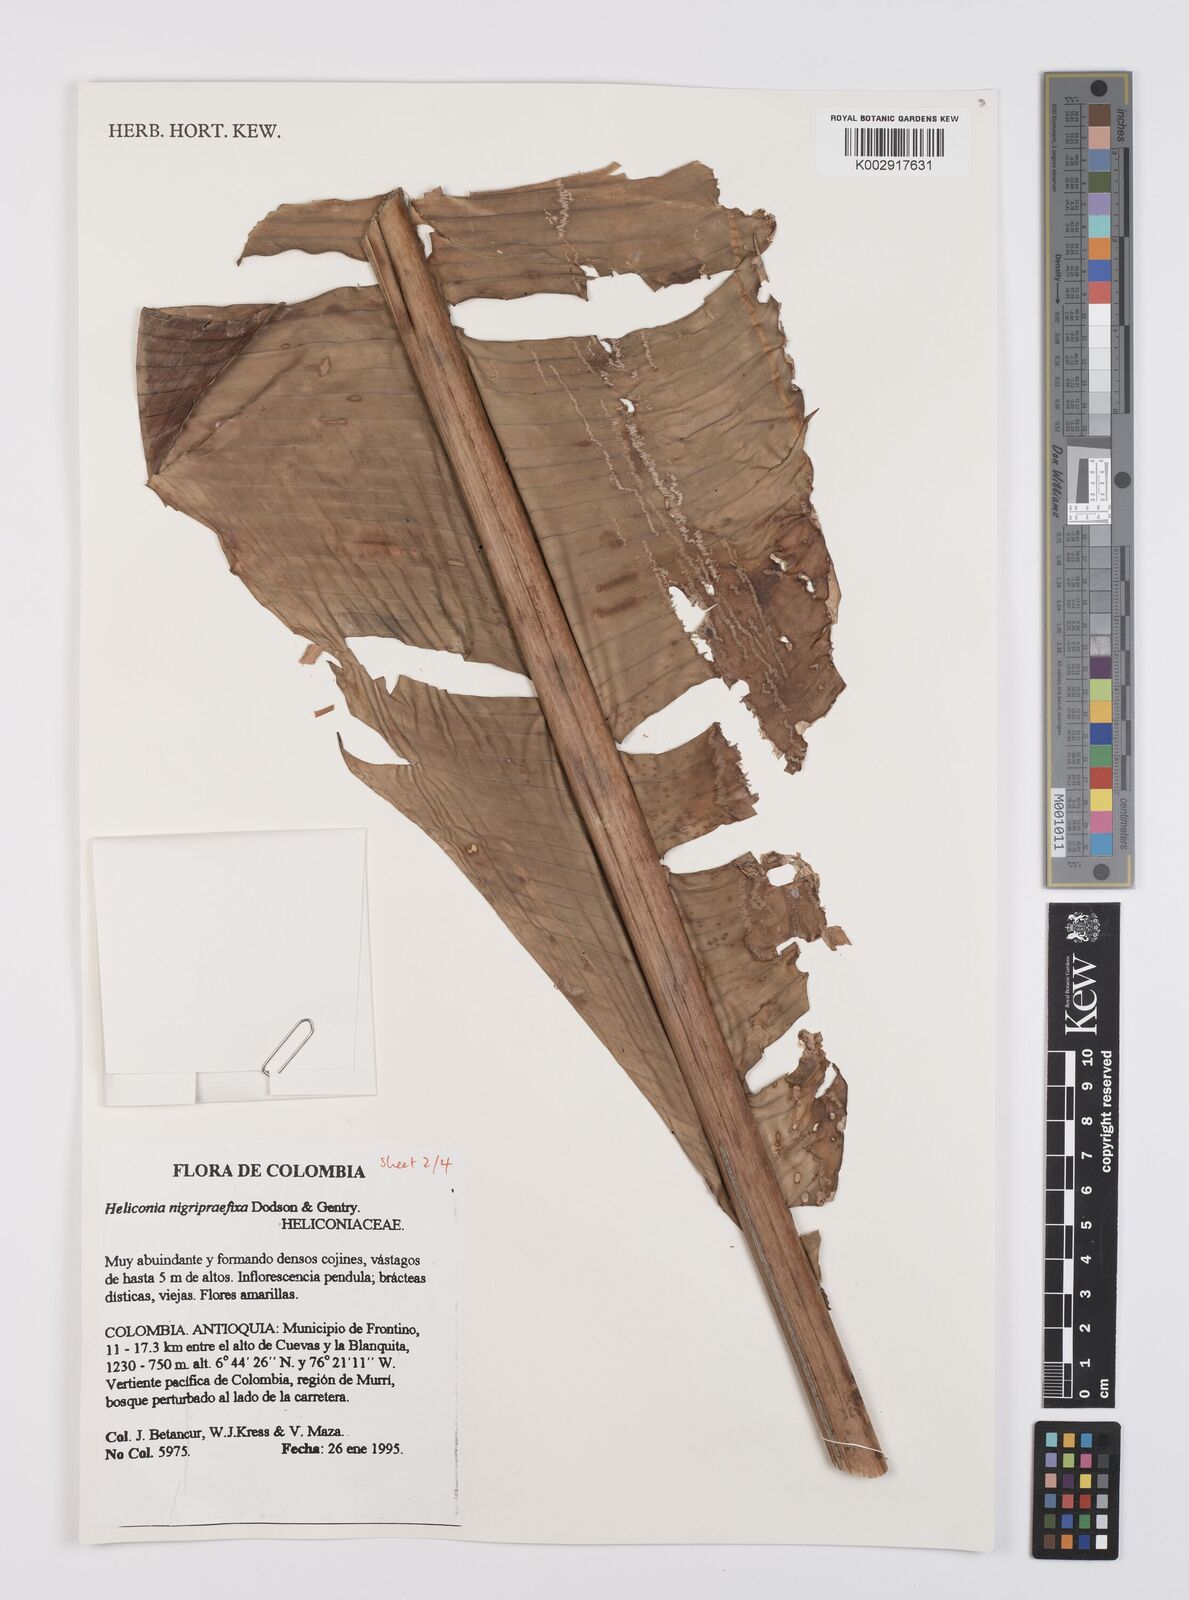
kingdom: Plantae
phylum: Tracheophyta
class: Liliopsida
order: Zingiberales
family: Heliconiaceae
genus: Heliconia
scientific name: Heliconia nigripraefixa
